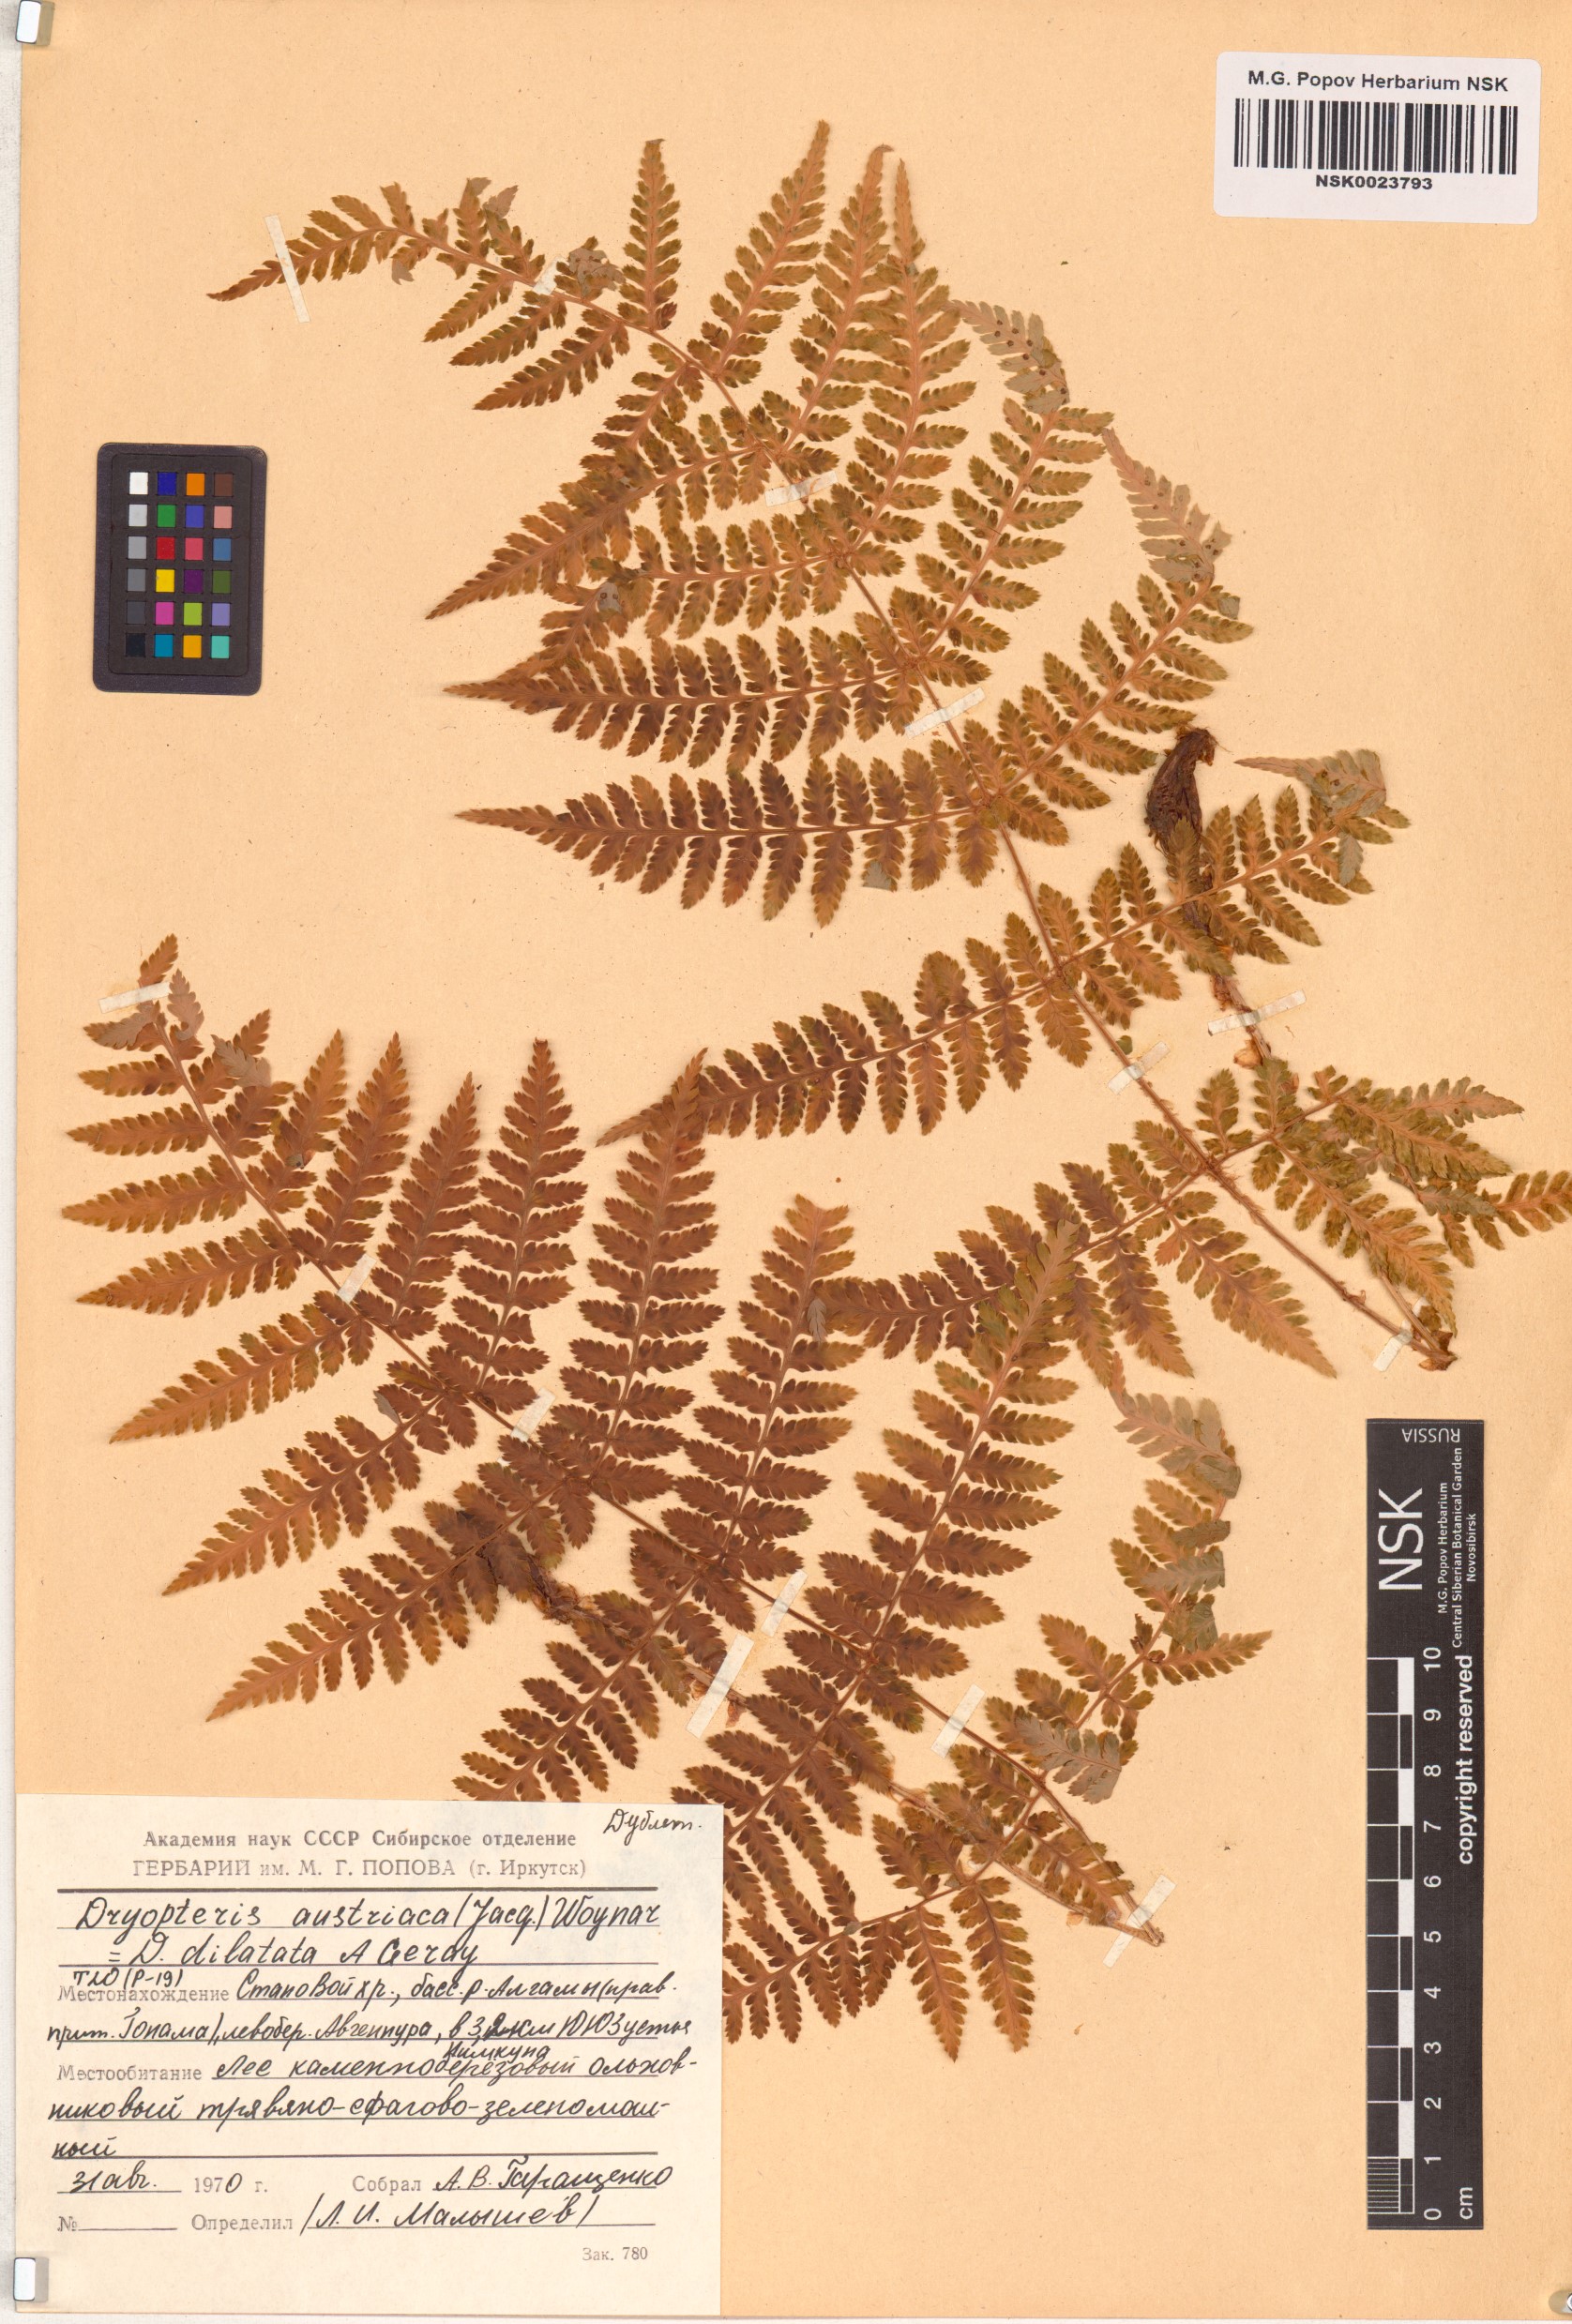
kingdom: Plantae
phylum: Tracheophyta
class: Polypodiopsida
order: Polypodiales
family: Dryopteridaceae
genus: Dryopteris
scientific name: Dryopteris dilatata
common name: Broad buckler-fern
